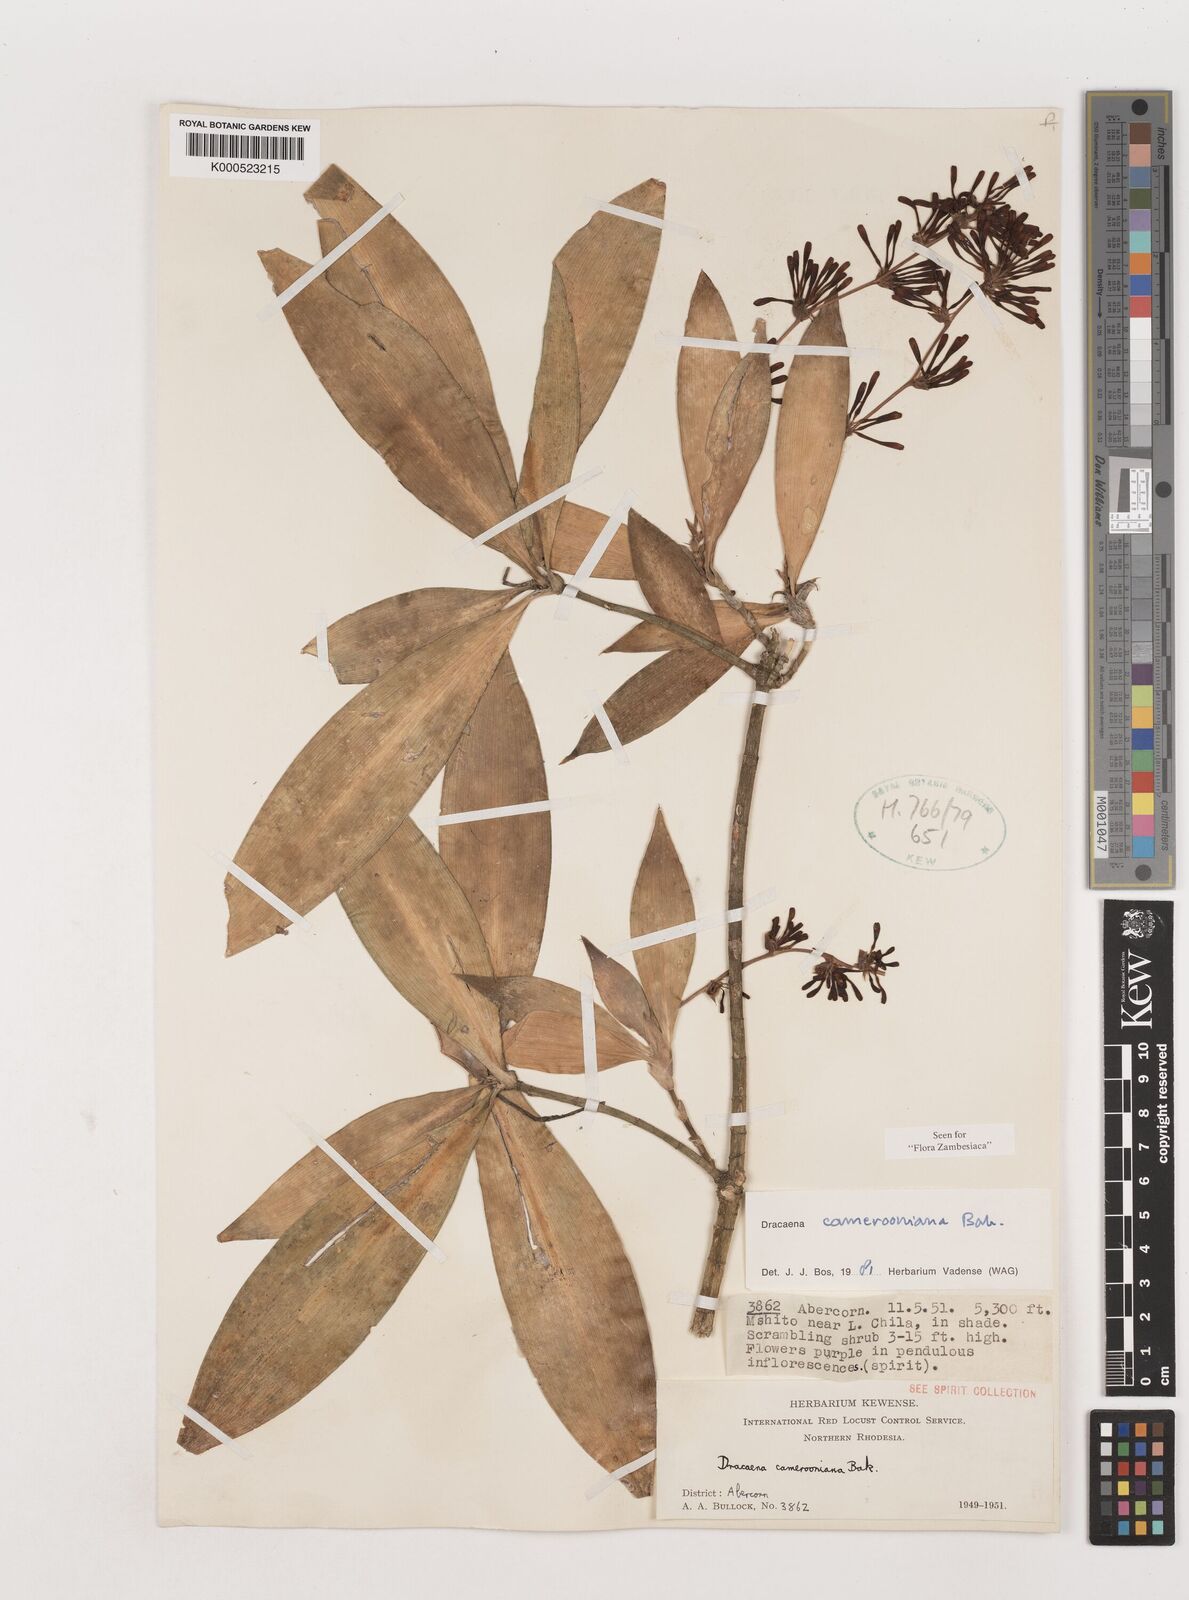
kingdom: Plantae
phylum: Tracheophyta
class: Liliopsida
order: Asparagales
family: Asparagaceae
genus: Dracaena
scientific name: Dracaena camerooniana
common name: Dragon tree
